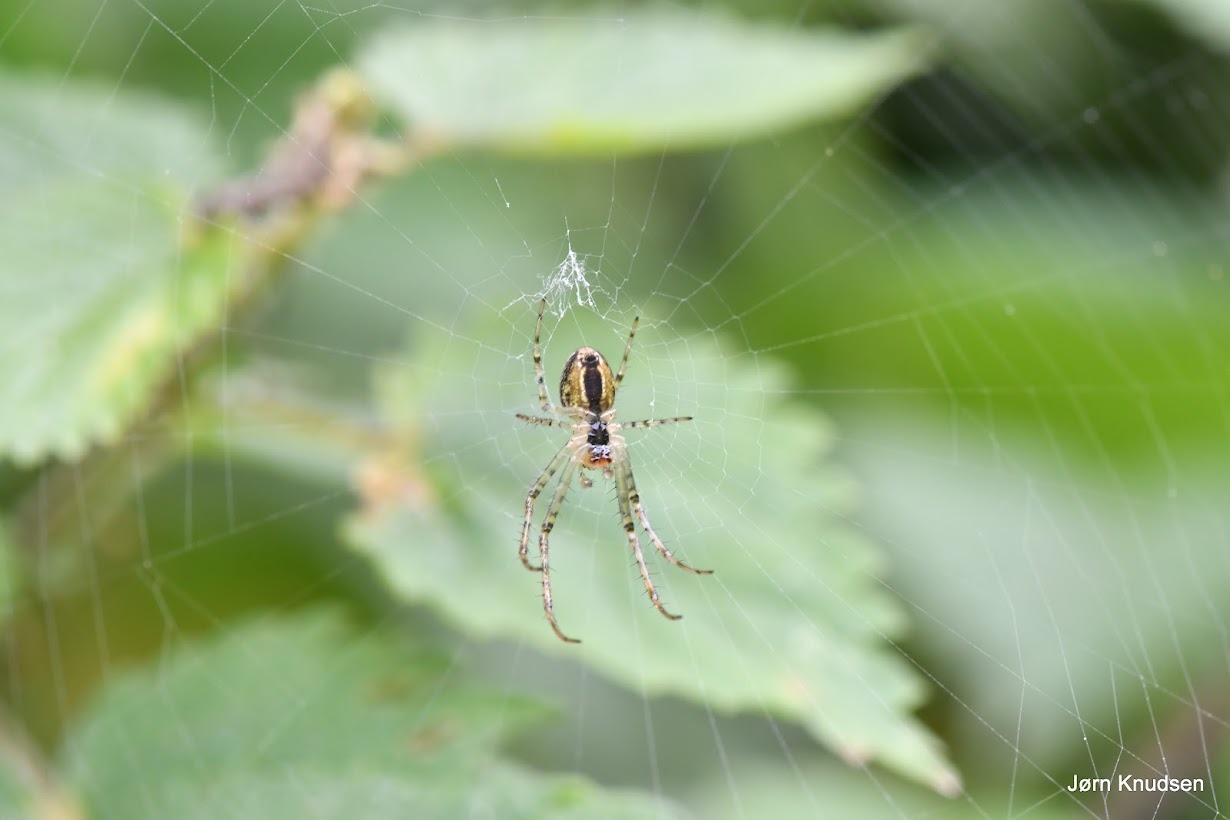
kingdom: Animalia
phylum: Arthropoda
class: Arachnida
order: Araneae
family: Tetragnathidae
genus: Metellina
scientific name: Metellina
